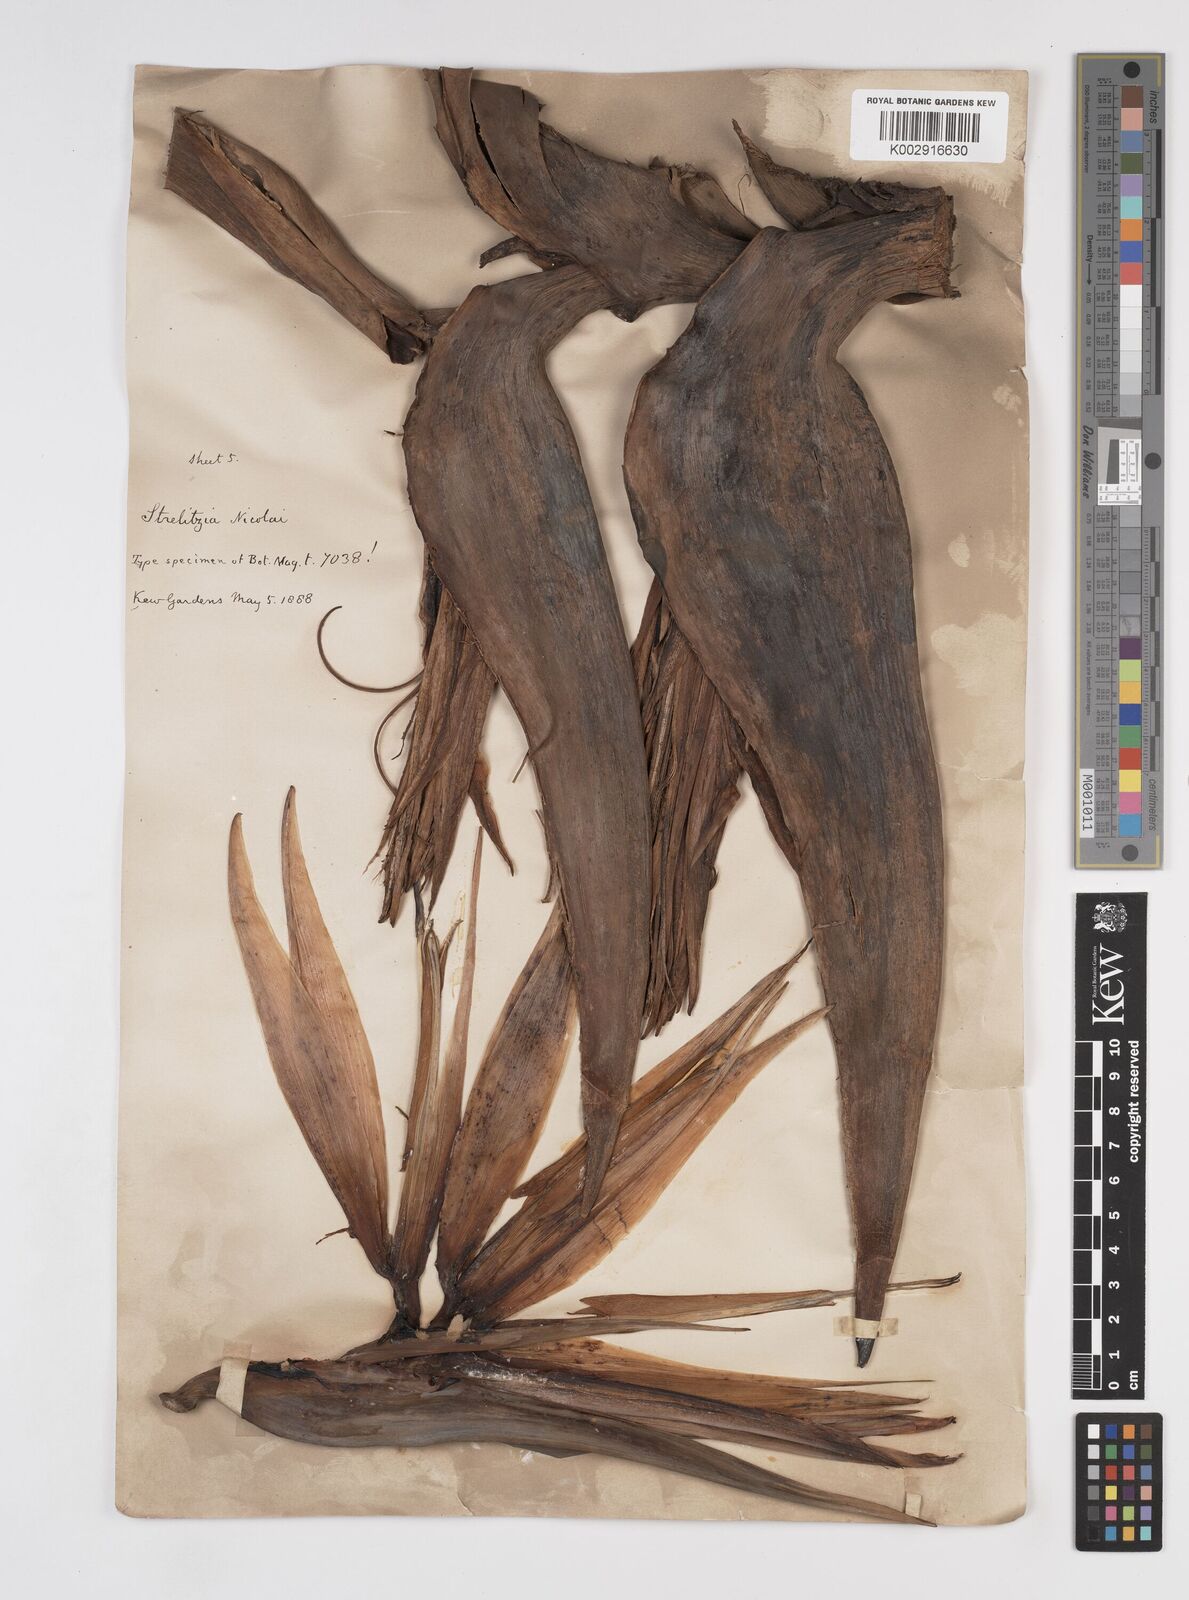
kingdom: Plantae
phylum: Tracheophyta
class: Liliopsida
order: Zingiberales
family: Strelitziaceae
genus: Strelitzia
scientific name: Strelitzia nicolai
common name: Bird-of-paradise tree
